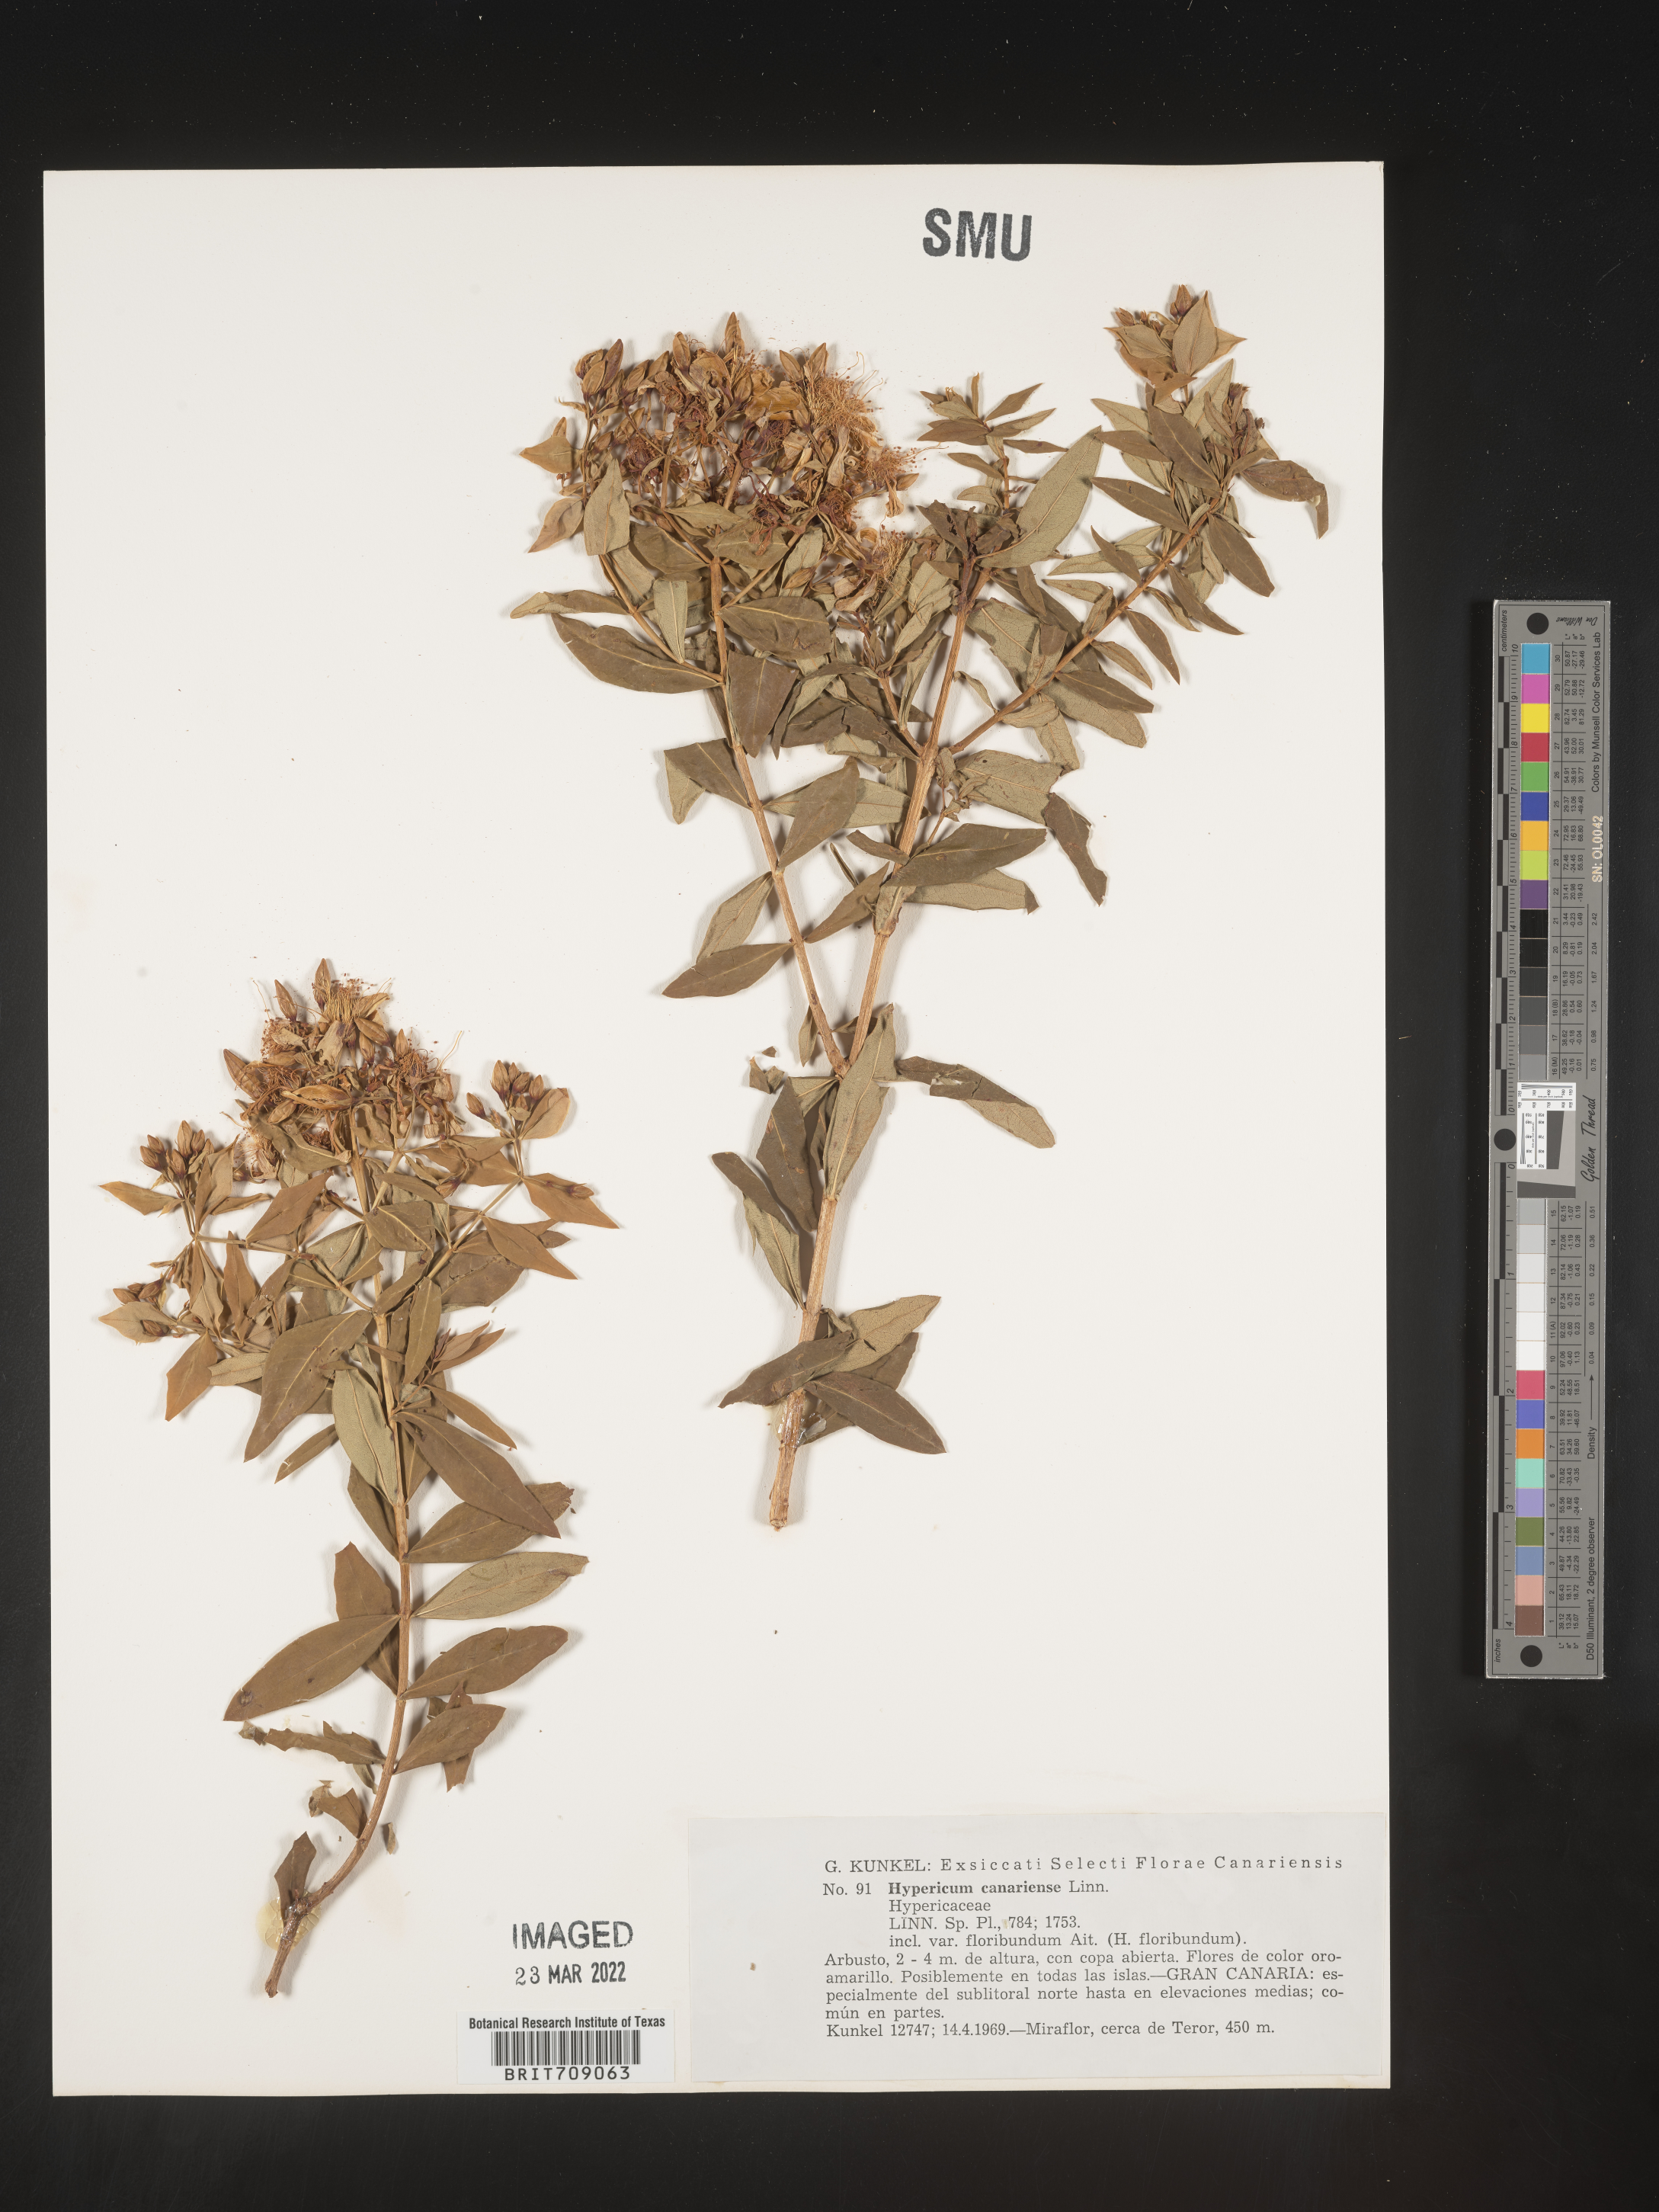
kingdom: Plantae
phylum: Tracheophyta
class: Magnoliopsida
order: Malpighiales
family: Hypericaceae
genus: Hypericum
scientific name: Hypericum
